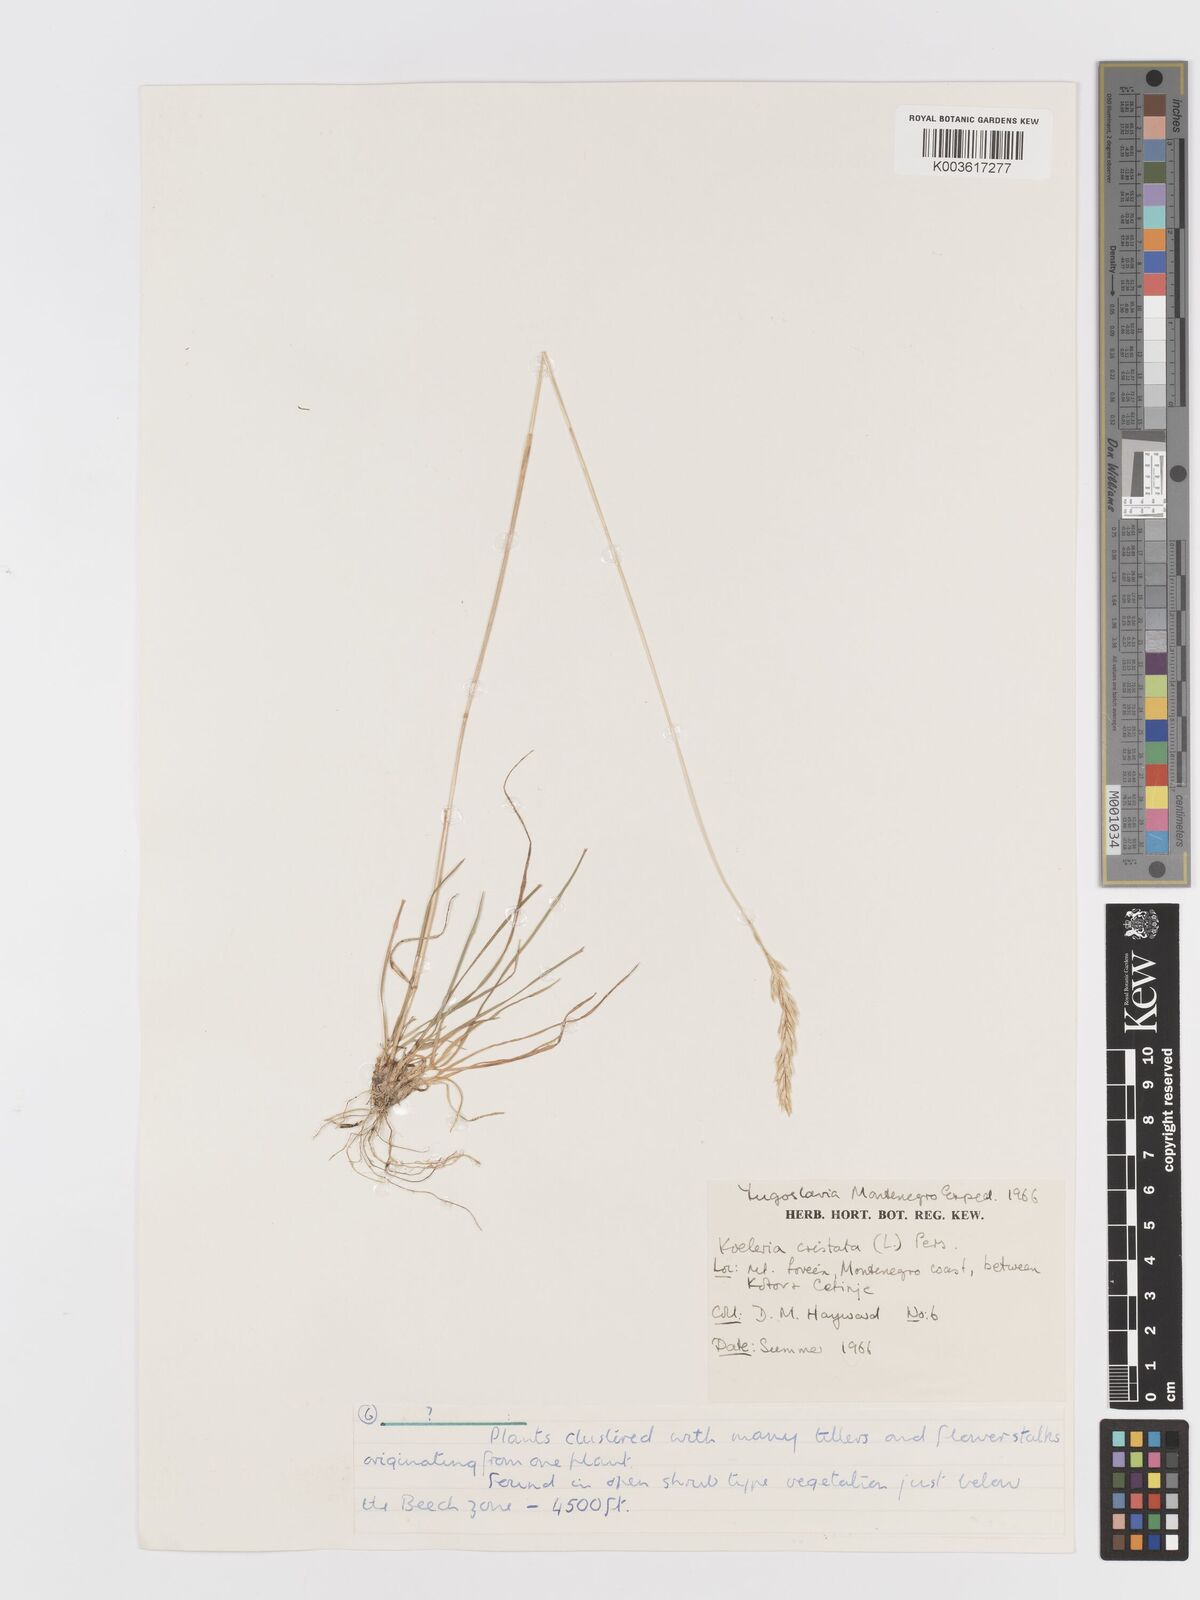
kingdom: Plantae
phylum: Tracheophyta
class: Liliopsida
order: Poales
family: Poaceae
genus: Koeleria
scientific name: Koeleria macrantha
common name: Crested hair-grass
